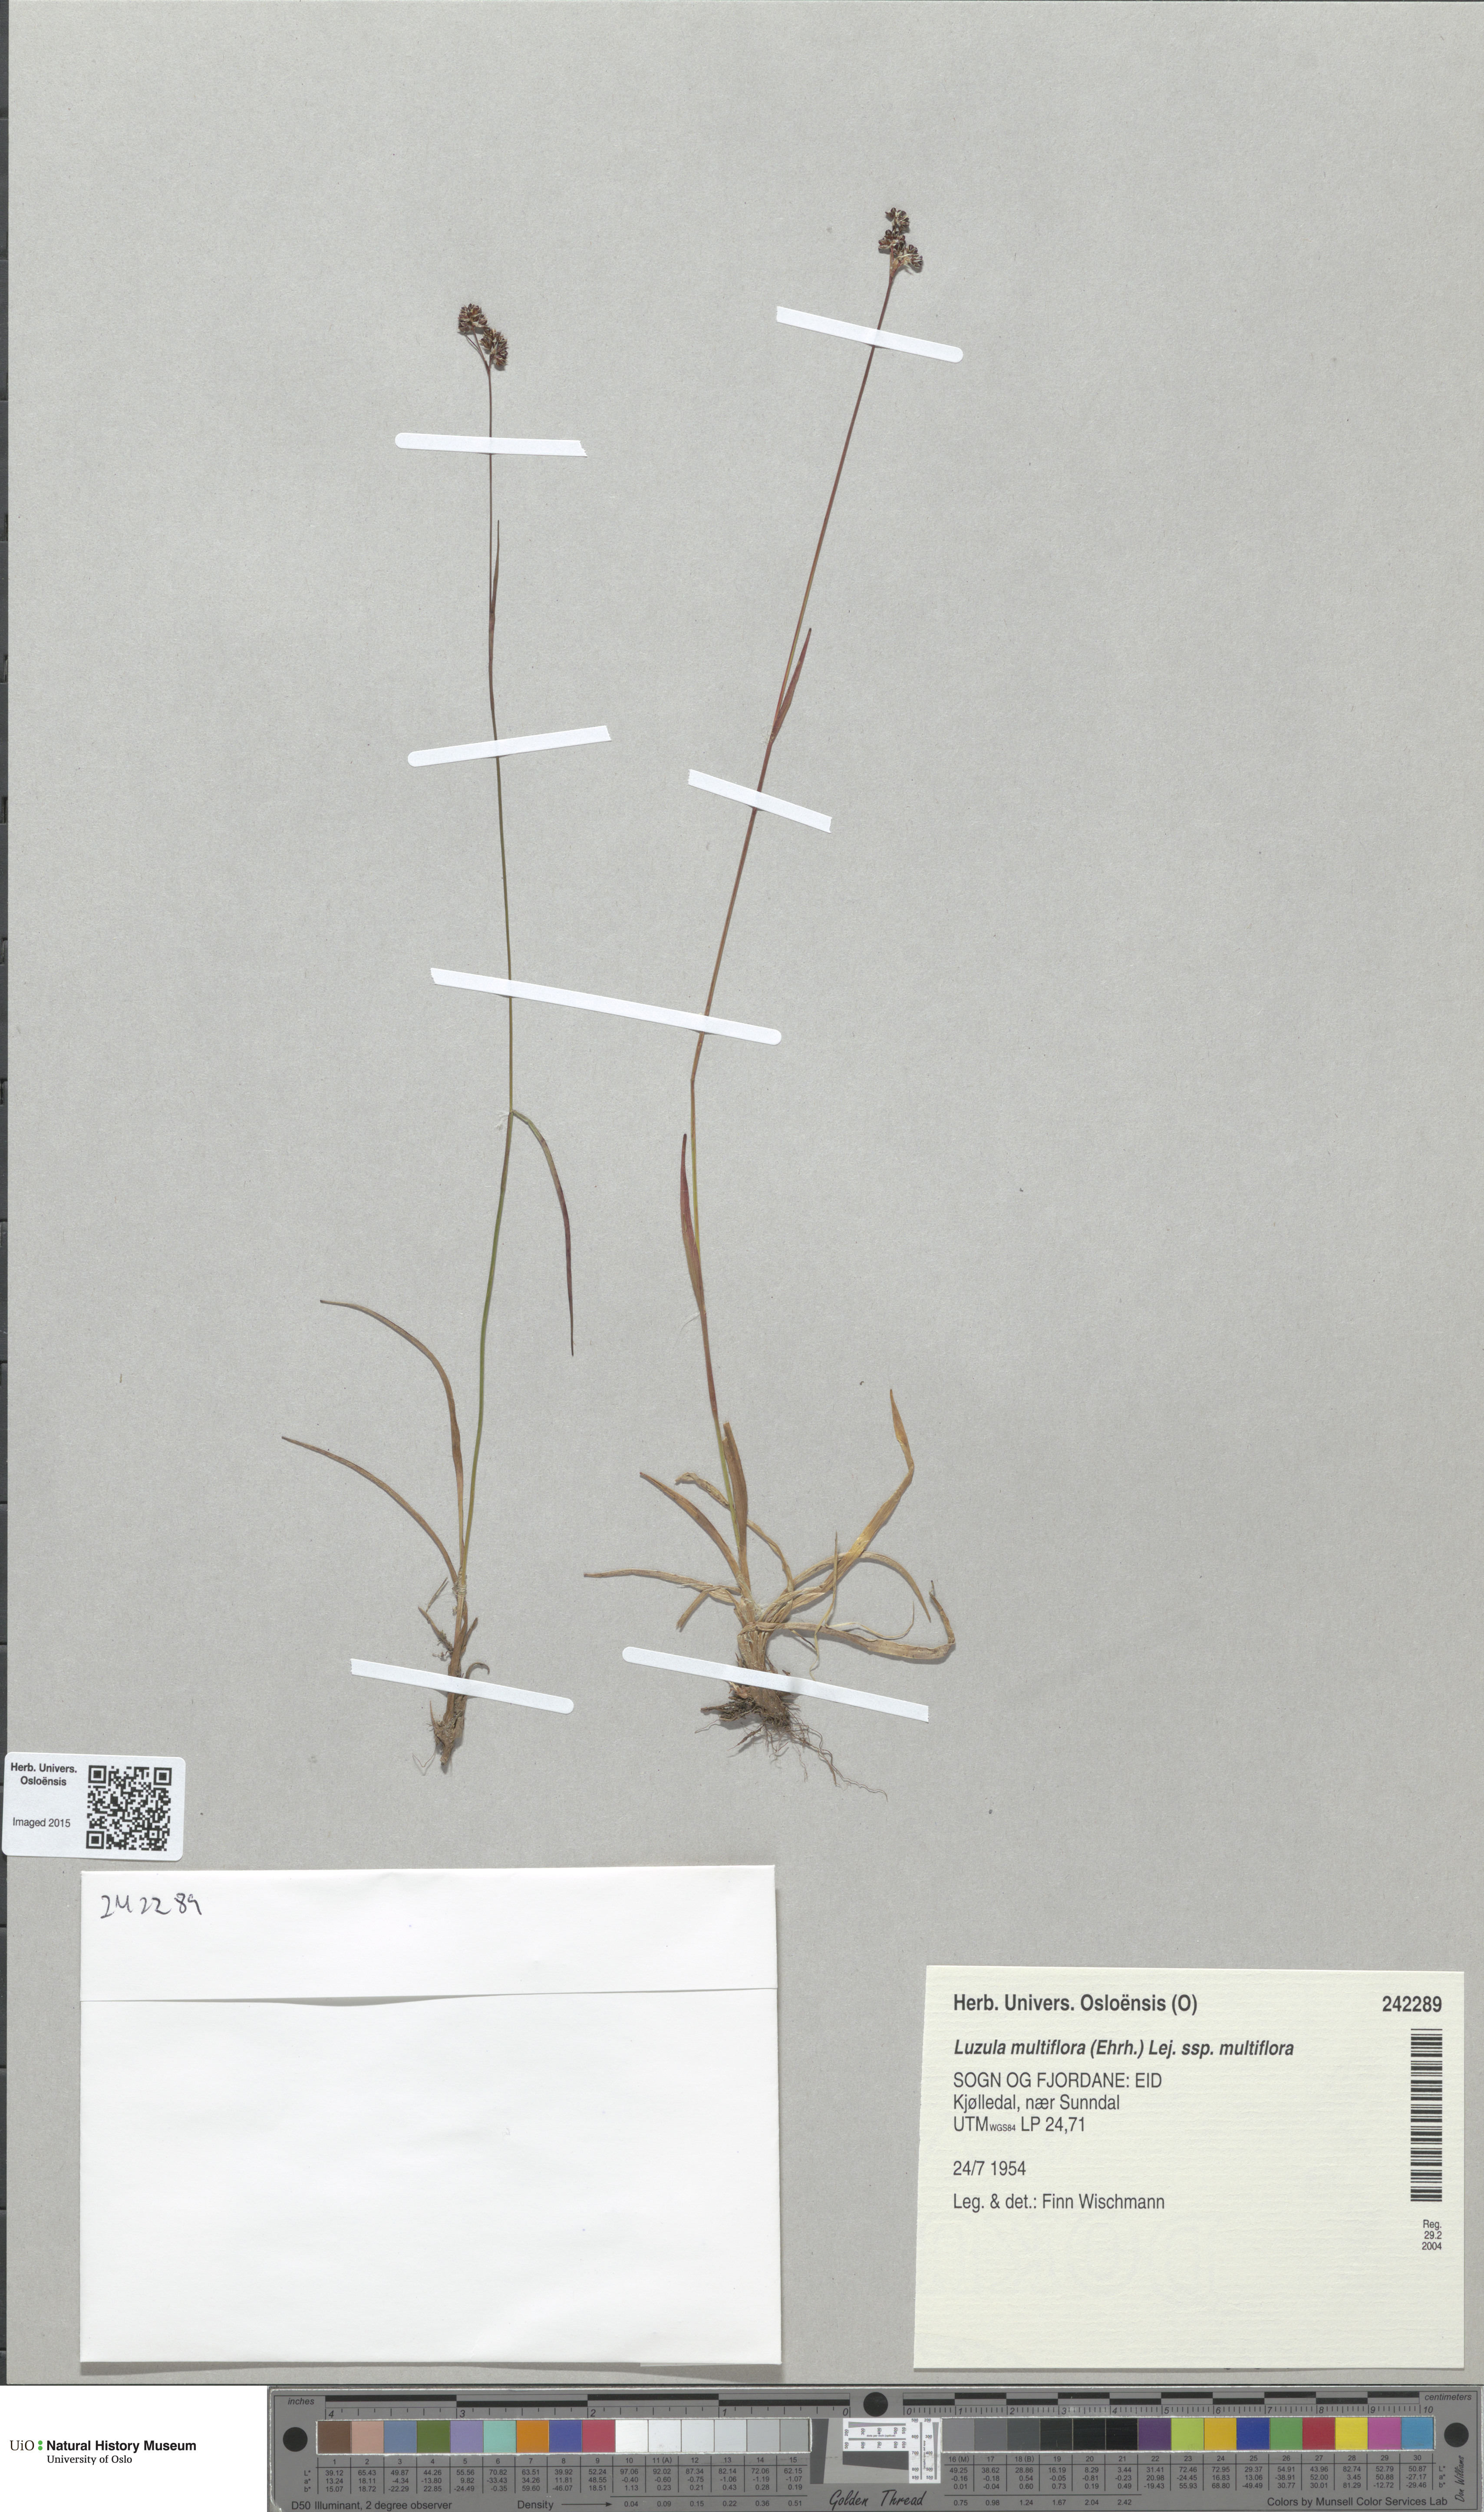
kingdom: Plantae
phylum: Tracheophyta
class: Liliopsida
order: Poales
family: Juncaceae
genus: Luzula
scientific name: Luzula multiflora
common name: Heath wood-rush
